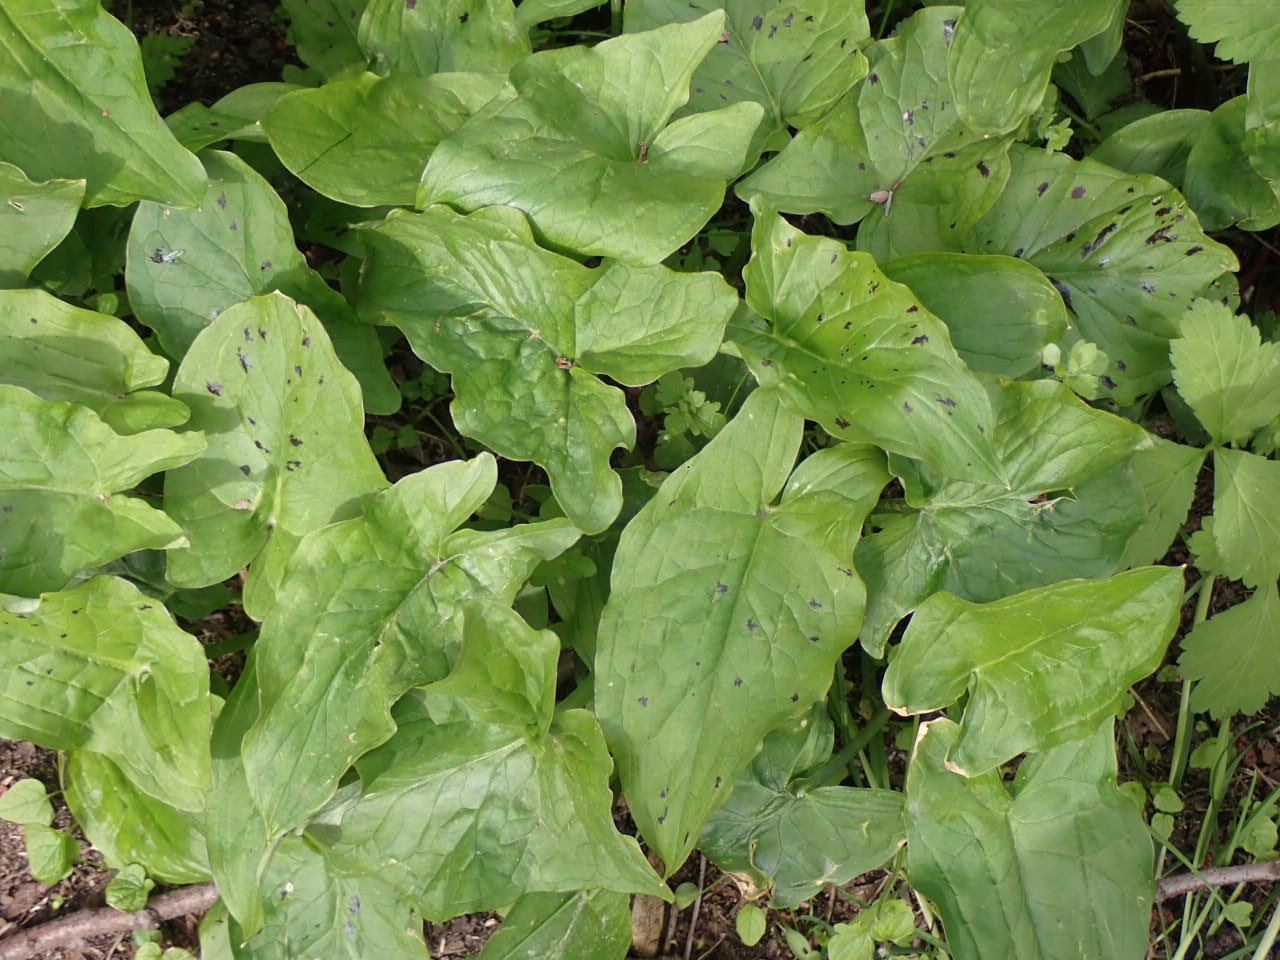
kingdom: Plantae
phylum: Tracheophyta
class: Liliopsida
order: Alismatales
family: Araceae
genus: Arum
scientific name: Arum maculatum
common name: Plettet arum
